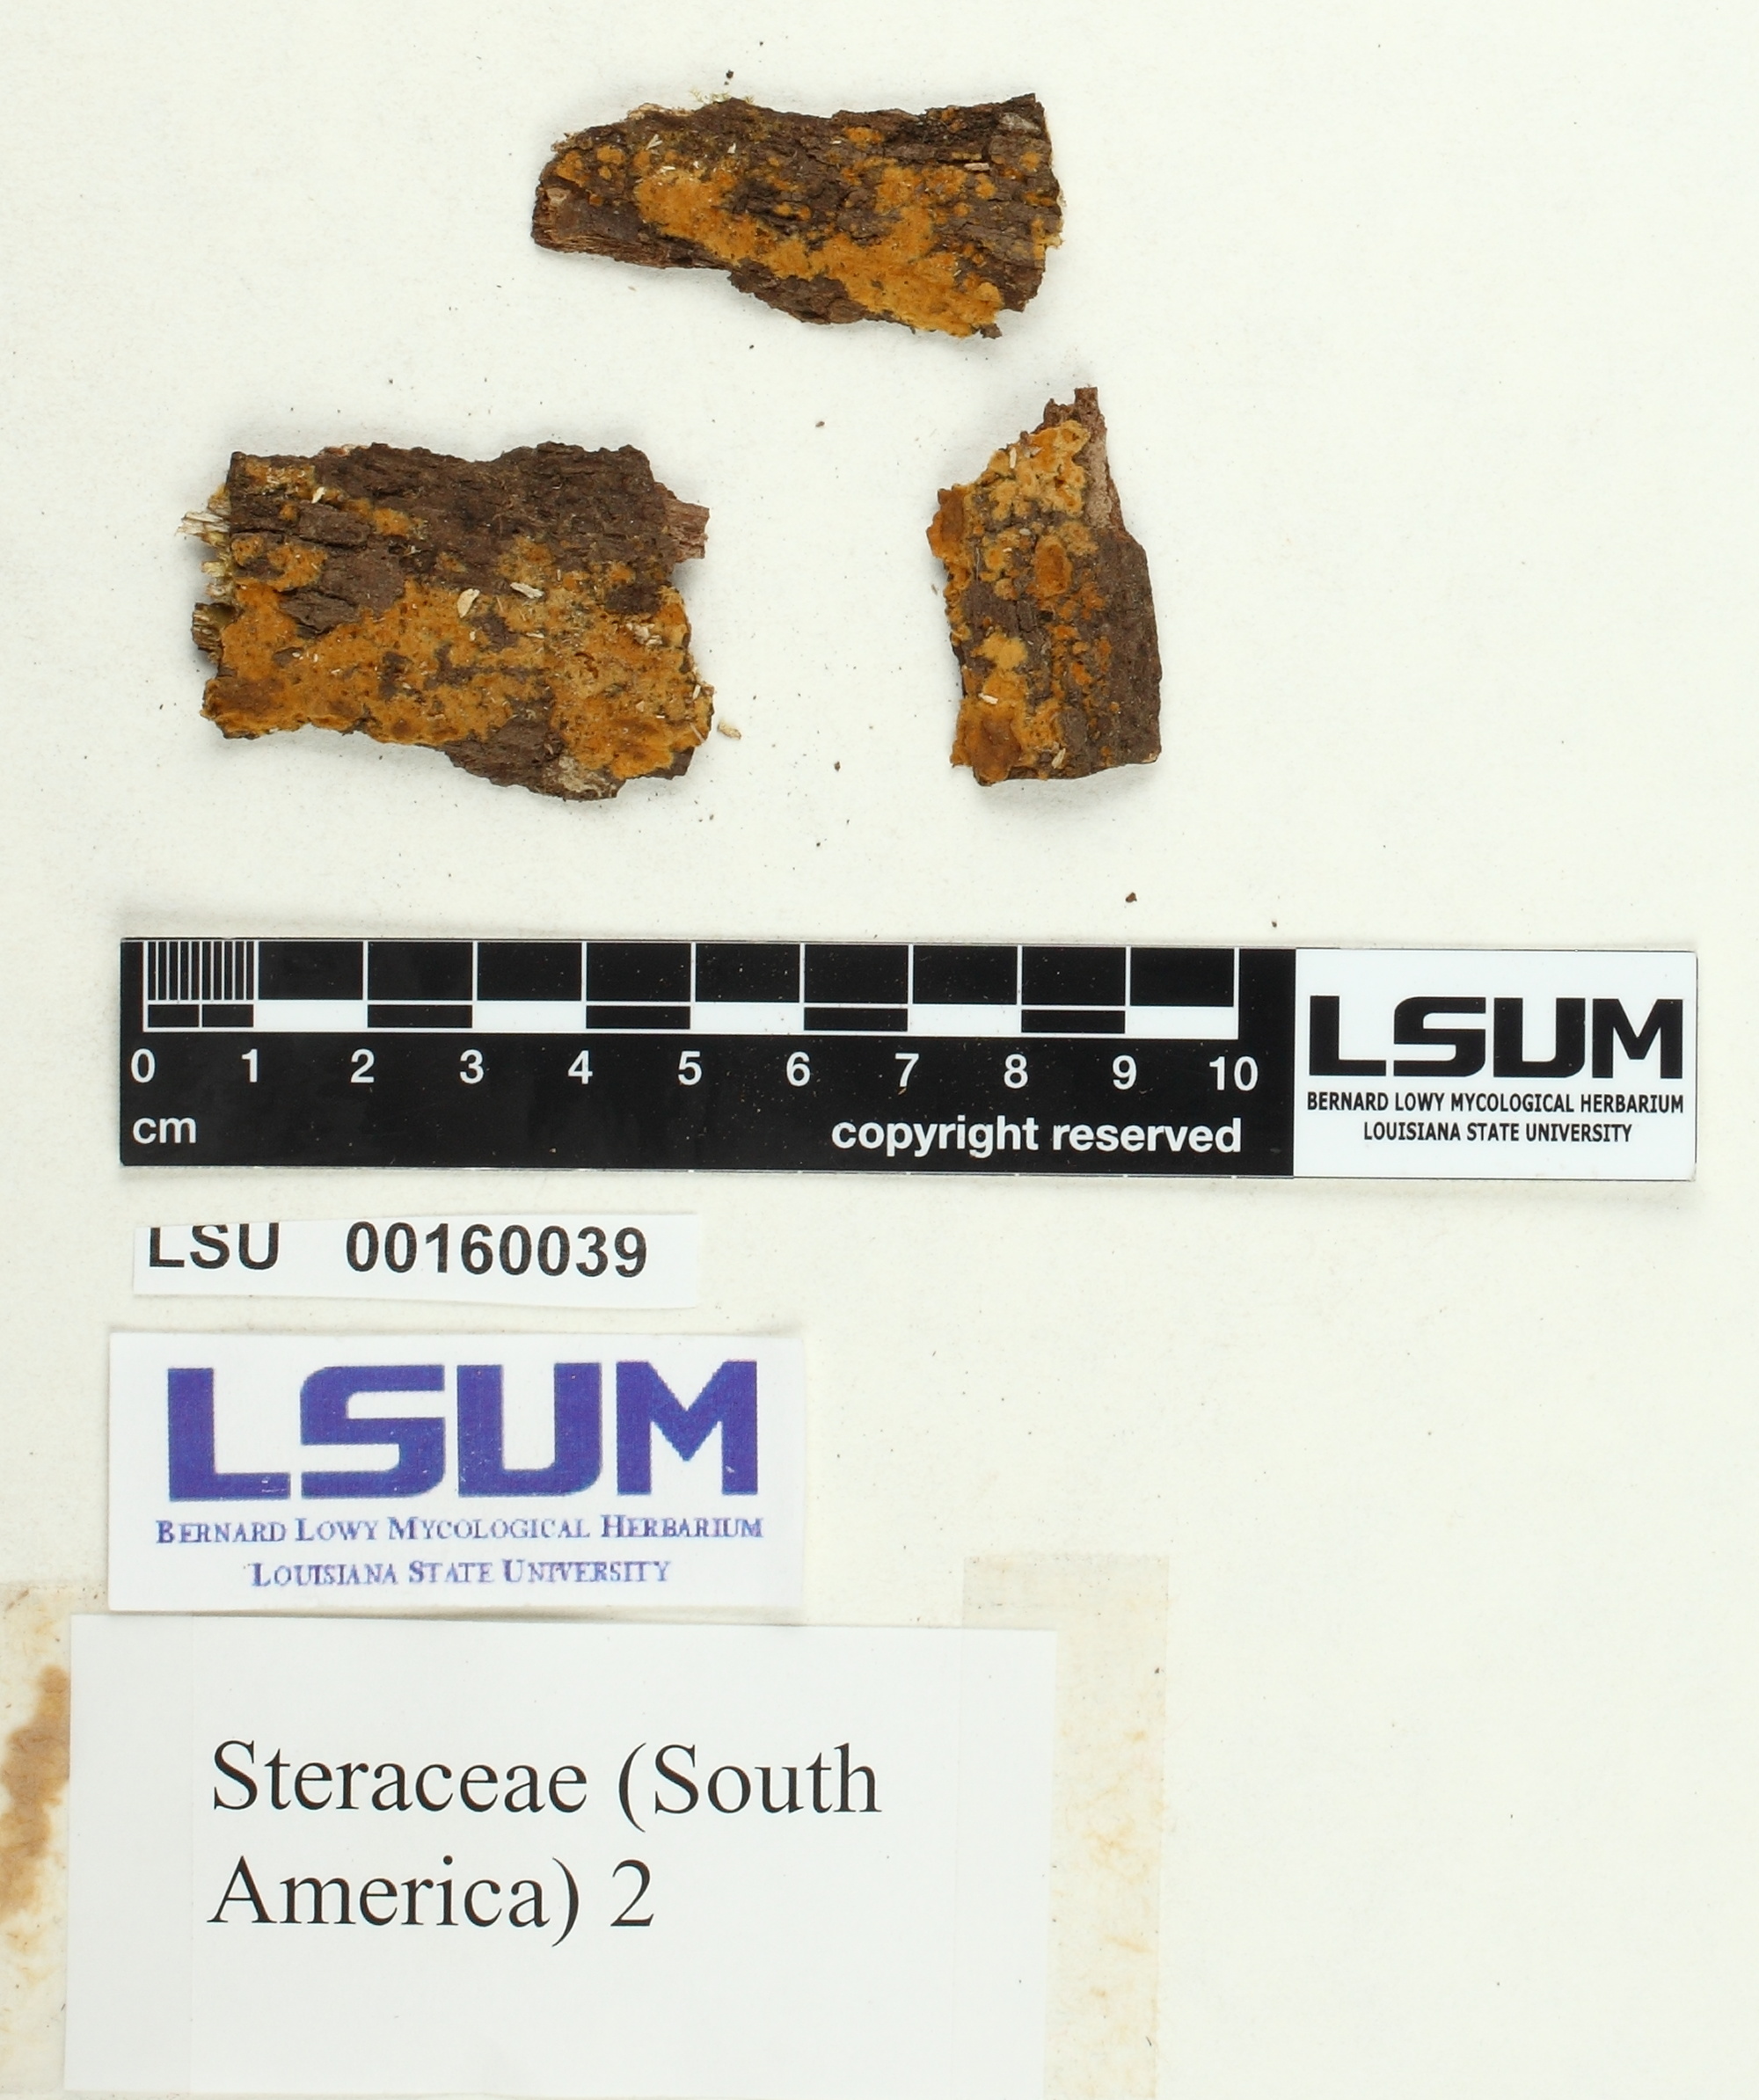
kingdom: Fungi
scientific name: Fungi
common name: Fungi
